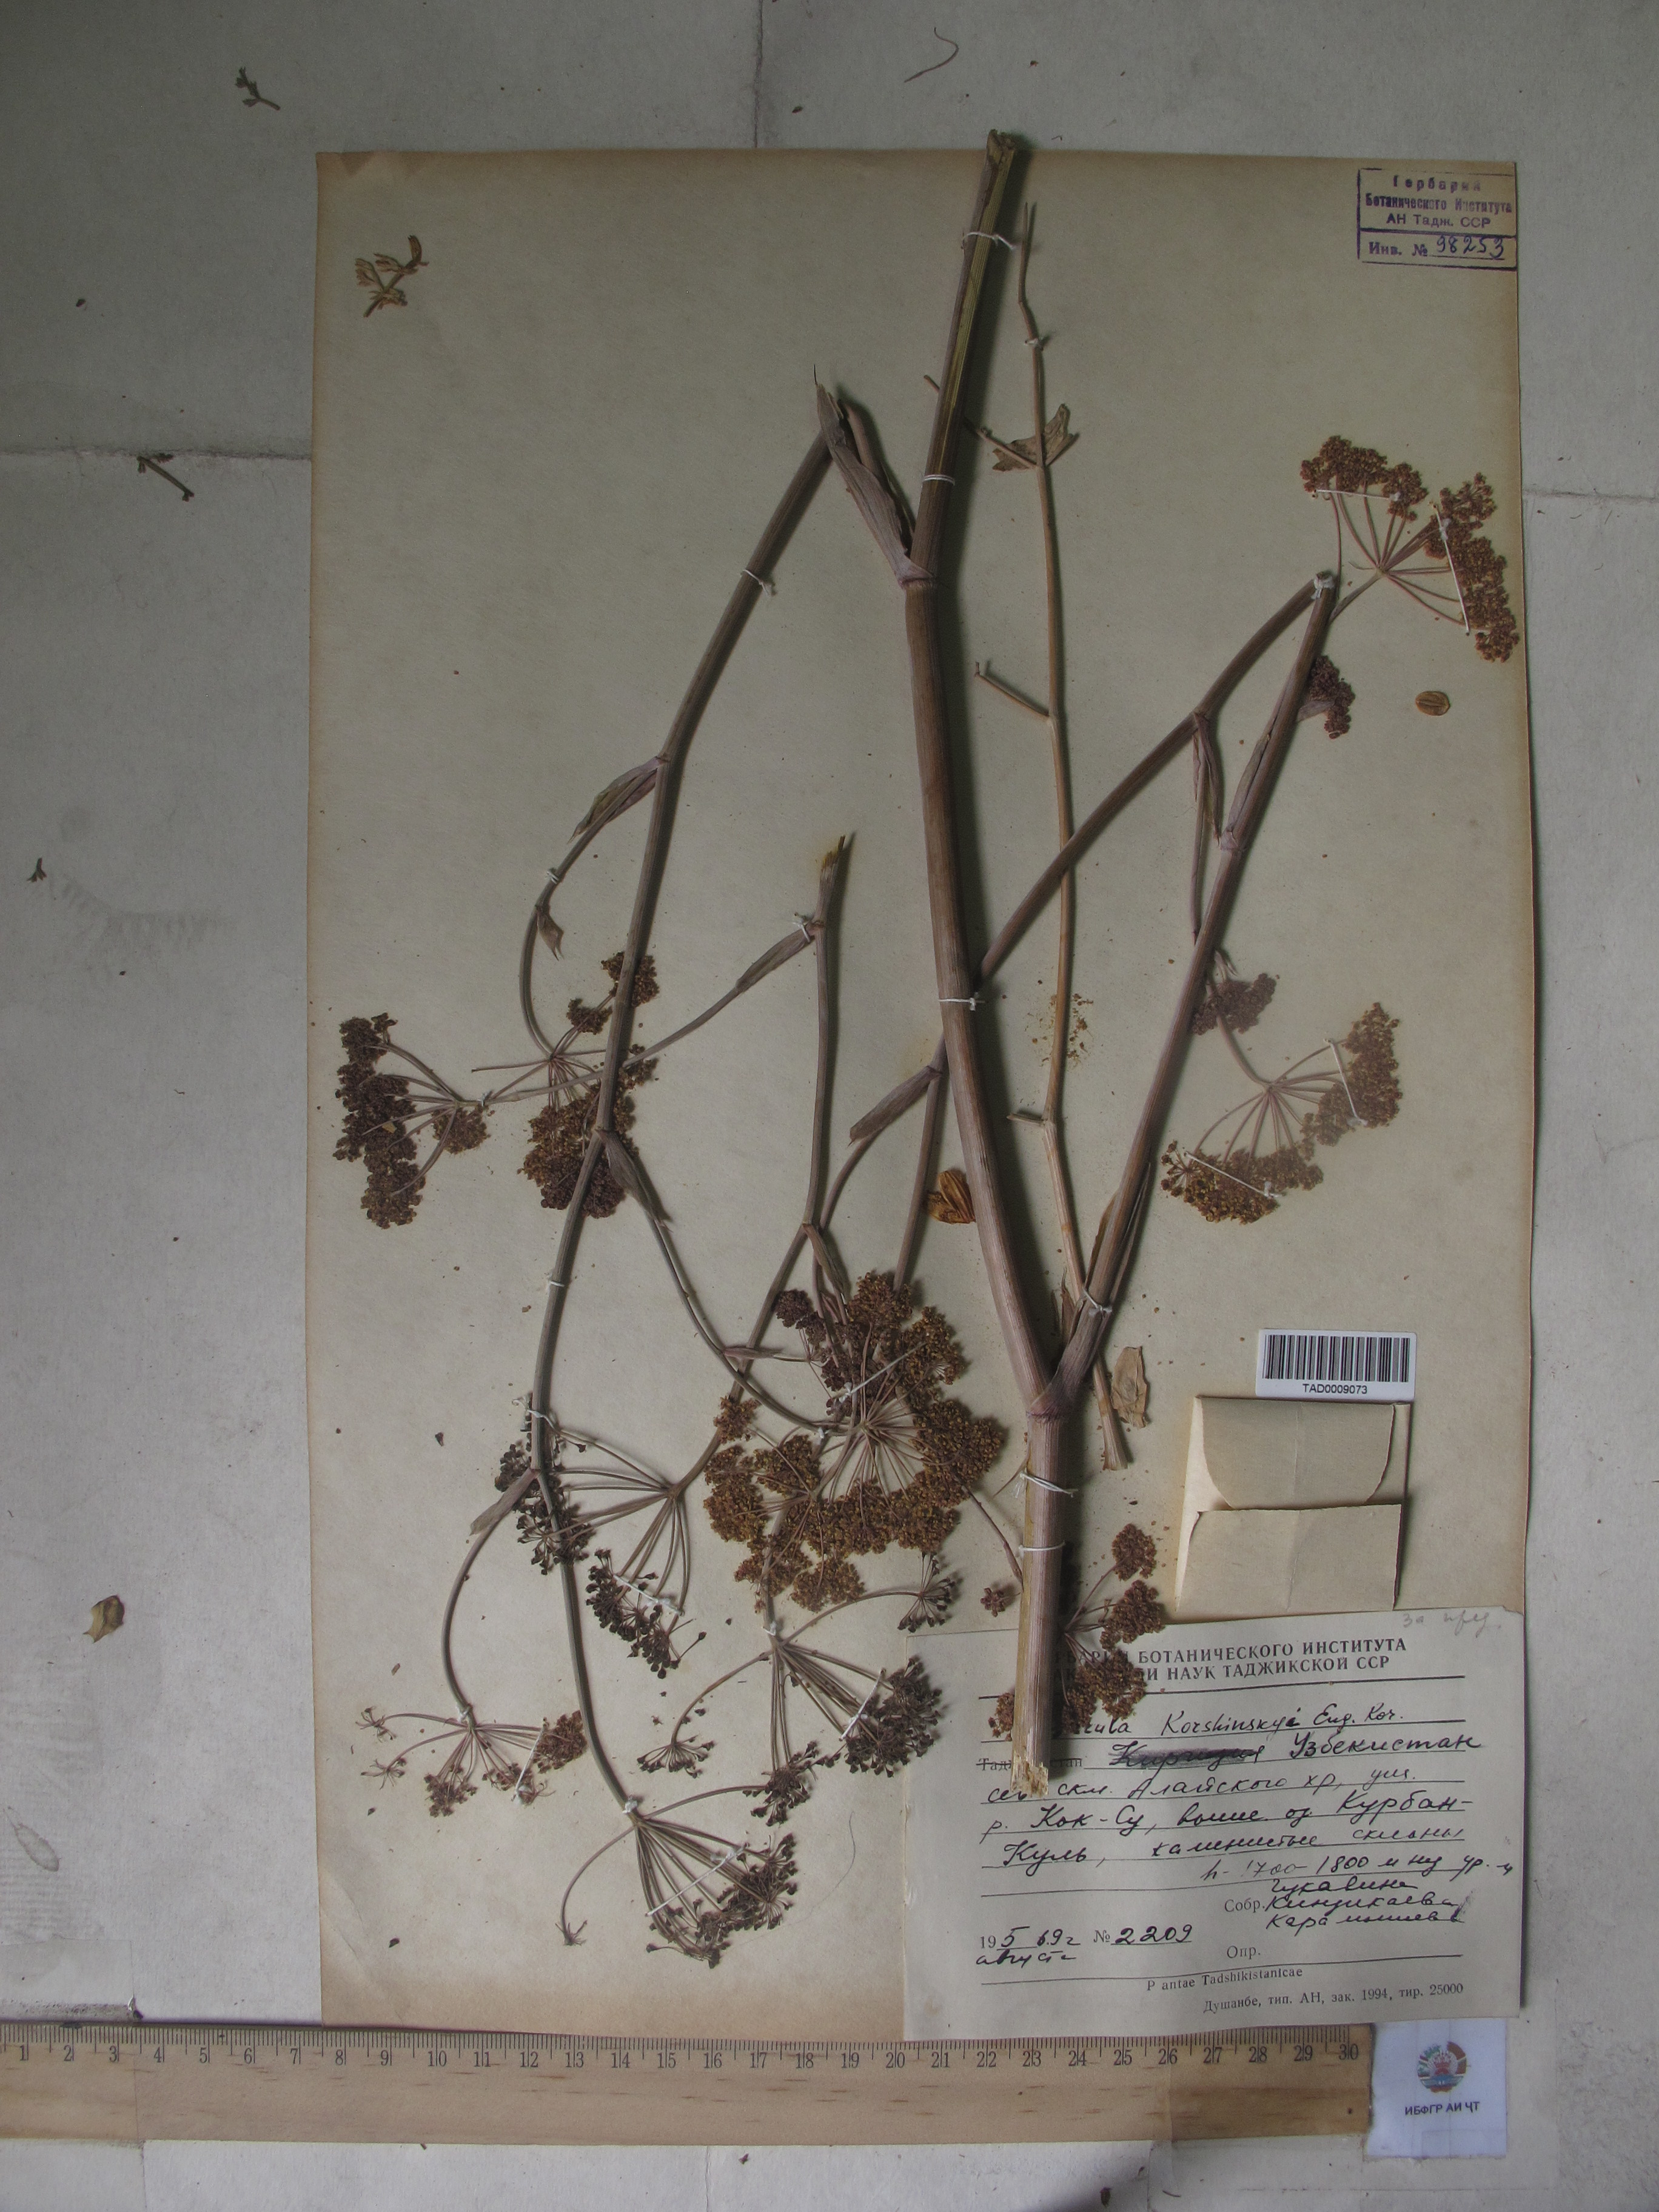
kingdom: Plantae
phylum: Tracheophyta
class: Magnoliopsida
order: Apiales
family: Apiaceae
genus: Ferula
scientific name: Ferula
